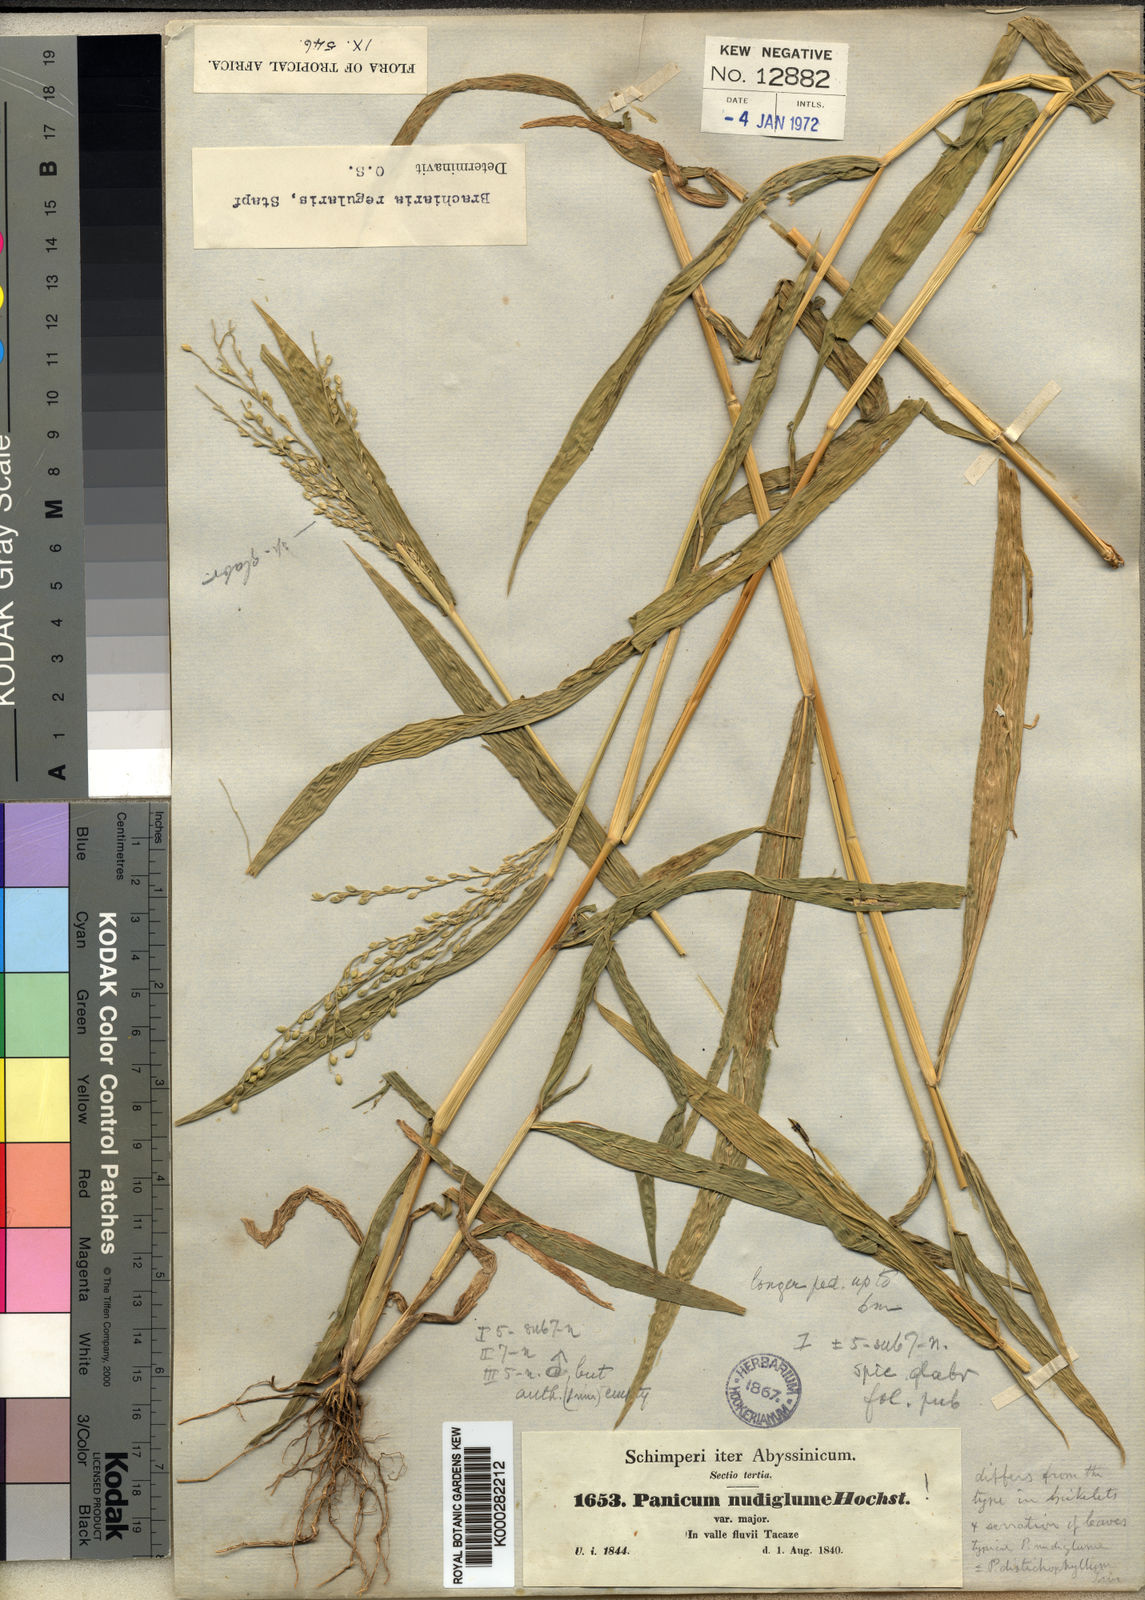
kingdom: Plantae
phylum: Tracheophyta
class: Liliopsida
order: Poales
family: Poaceae
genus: Urochloa
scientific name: Urochloa deflexa
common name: Guinea millet
